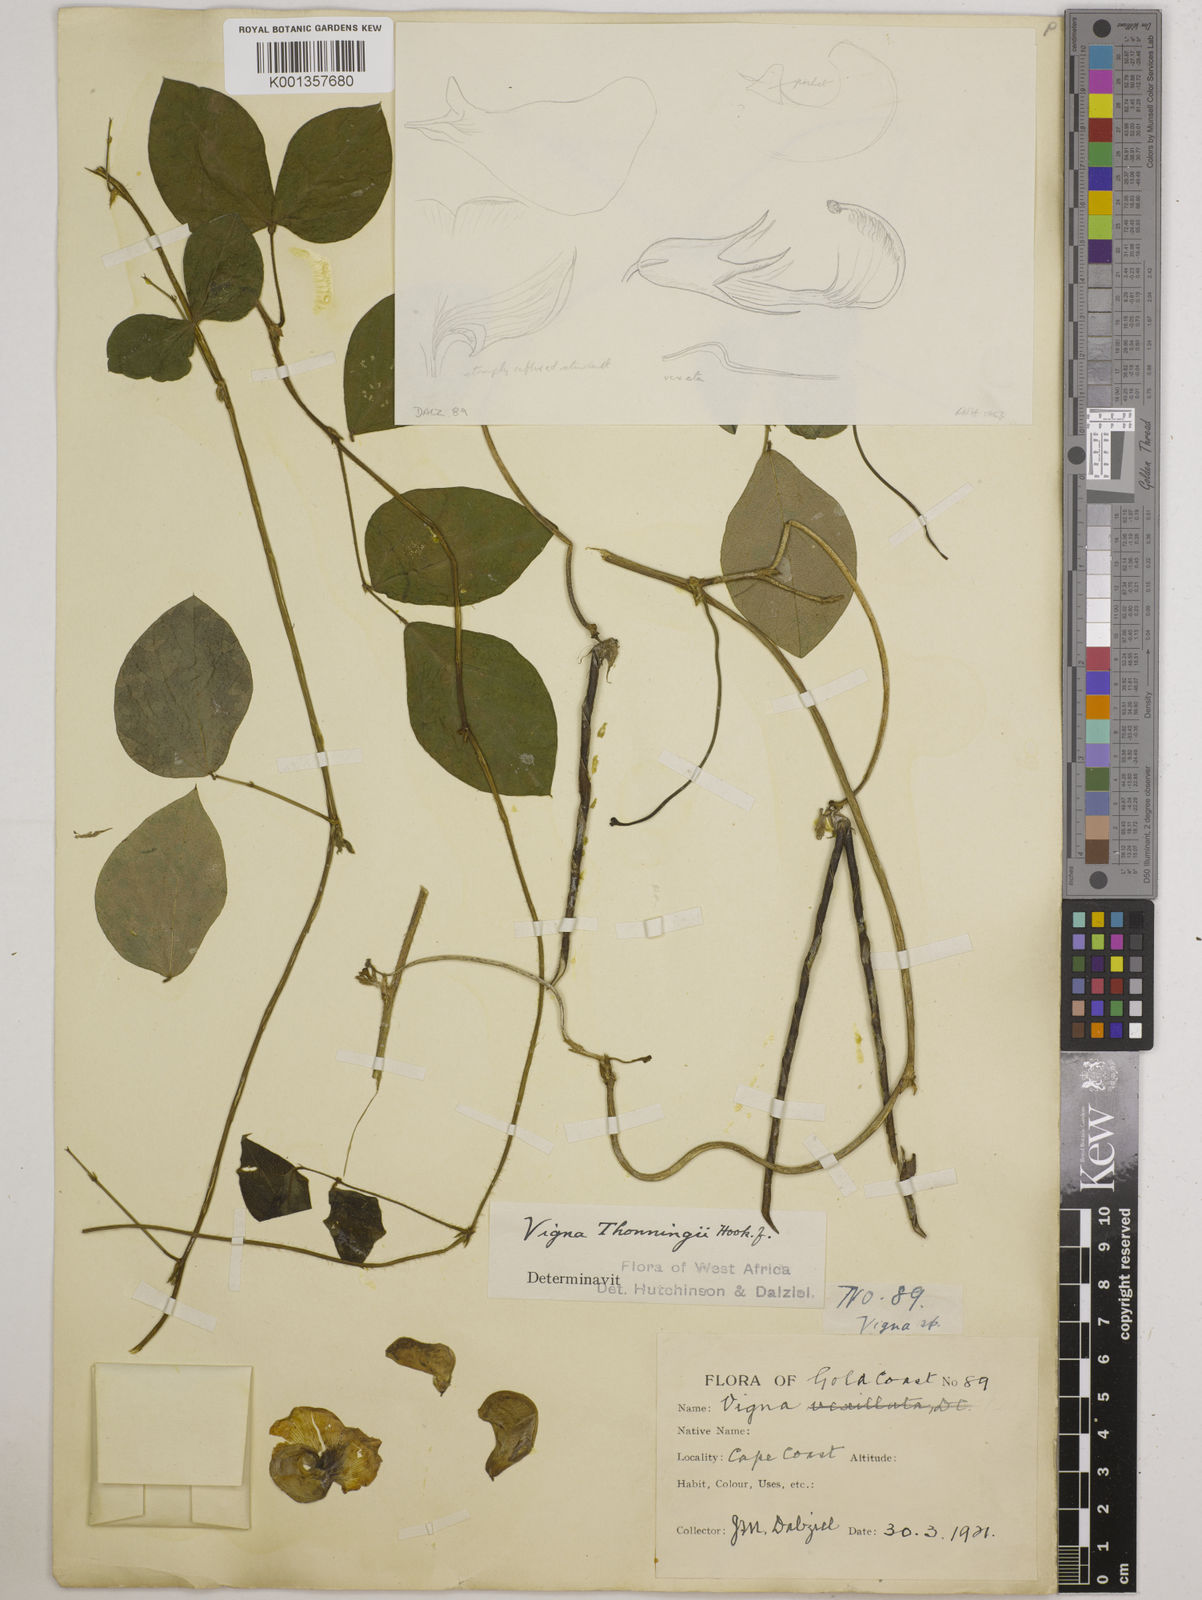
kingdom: Plantae
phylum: Tracheophyta
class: Magnoliopsida
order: Fabales
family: Fabaceae
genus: Vigna
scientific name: Vigna
